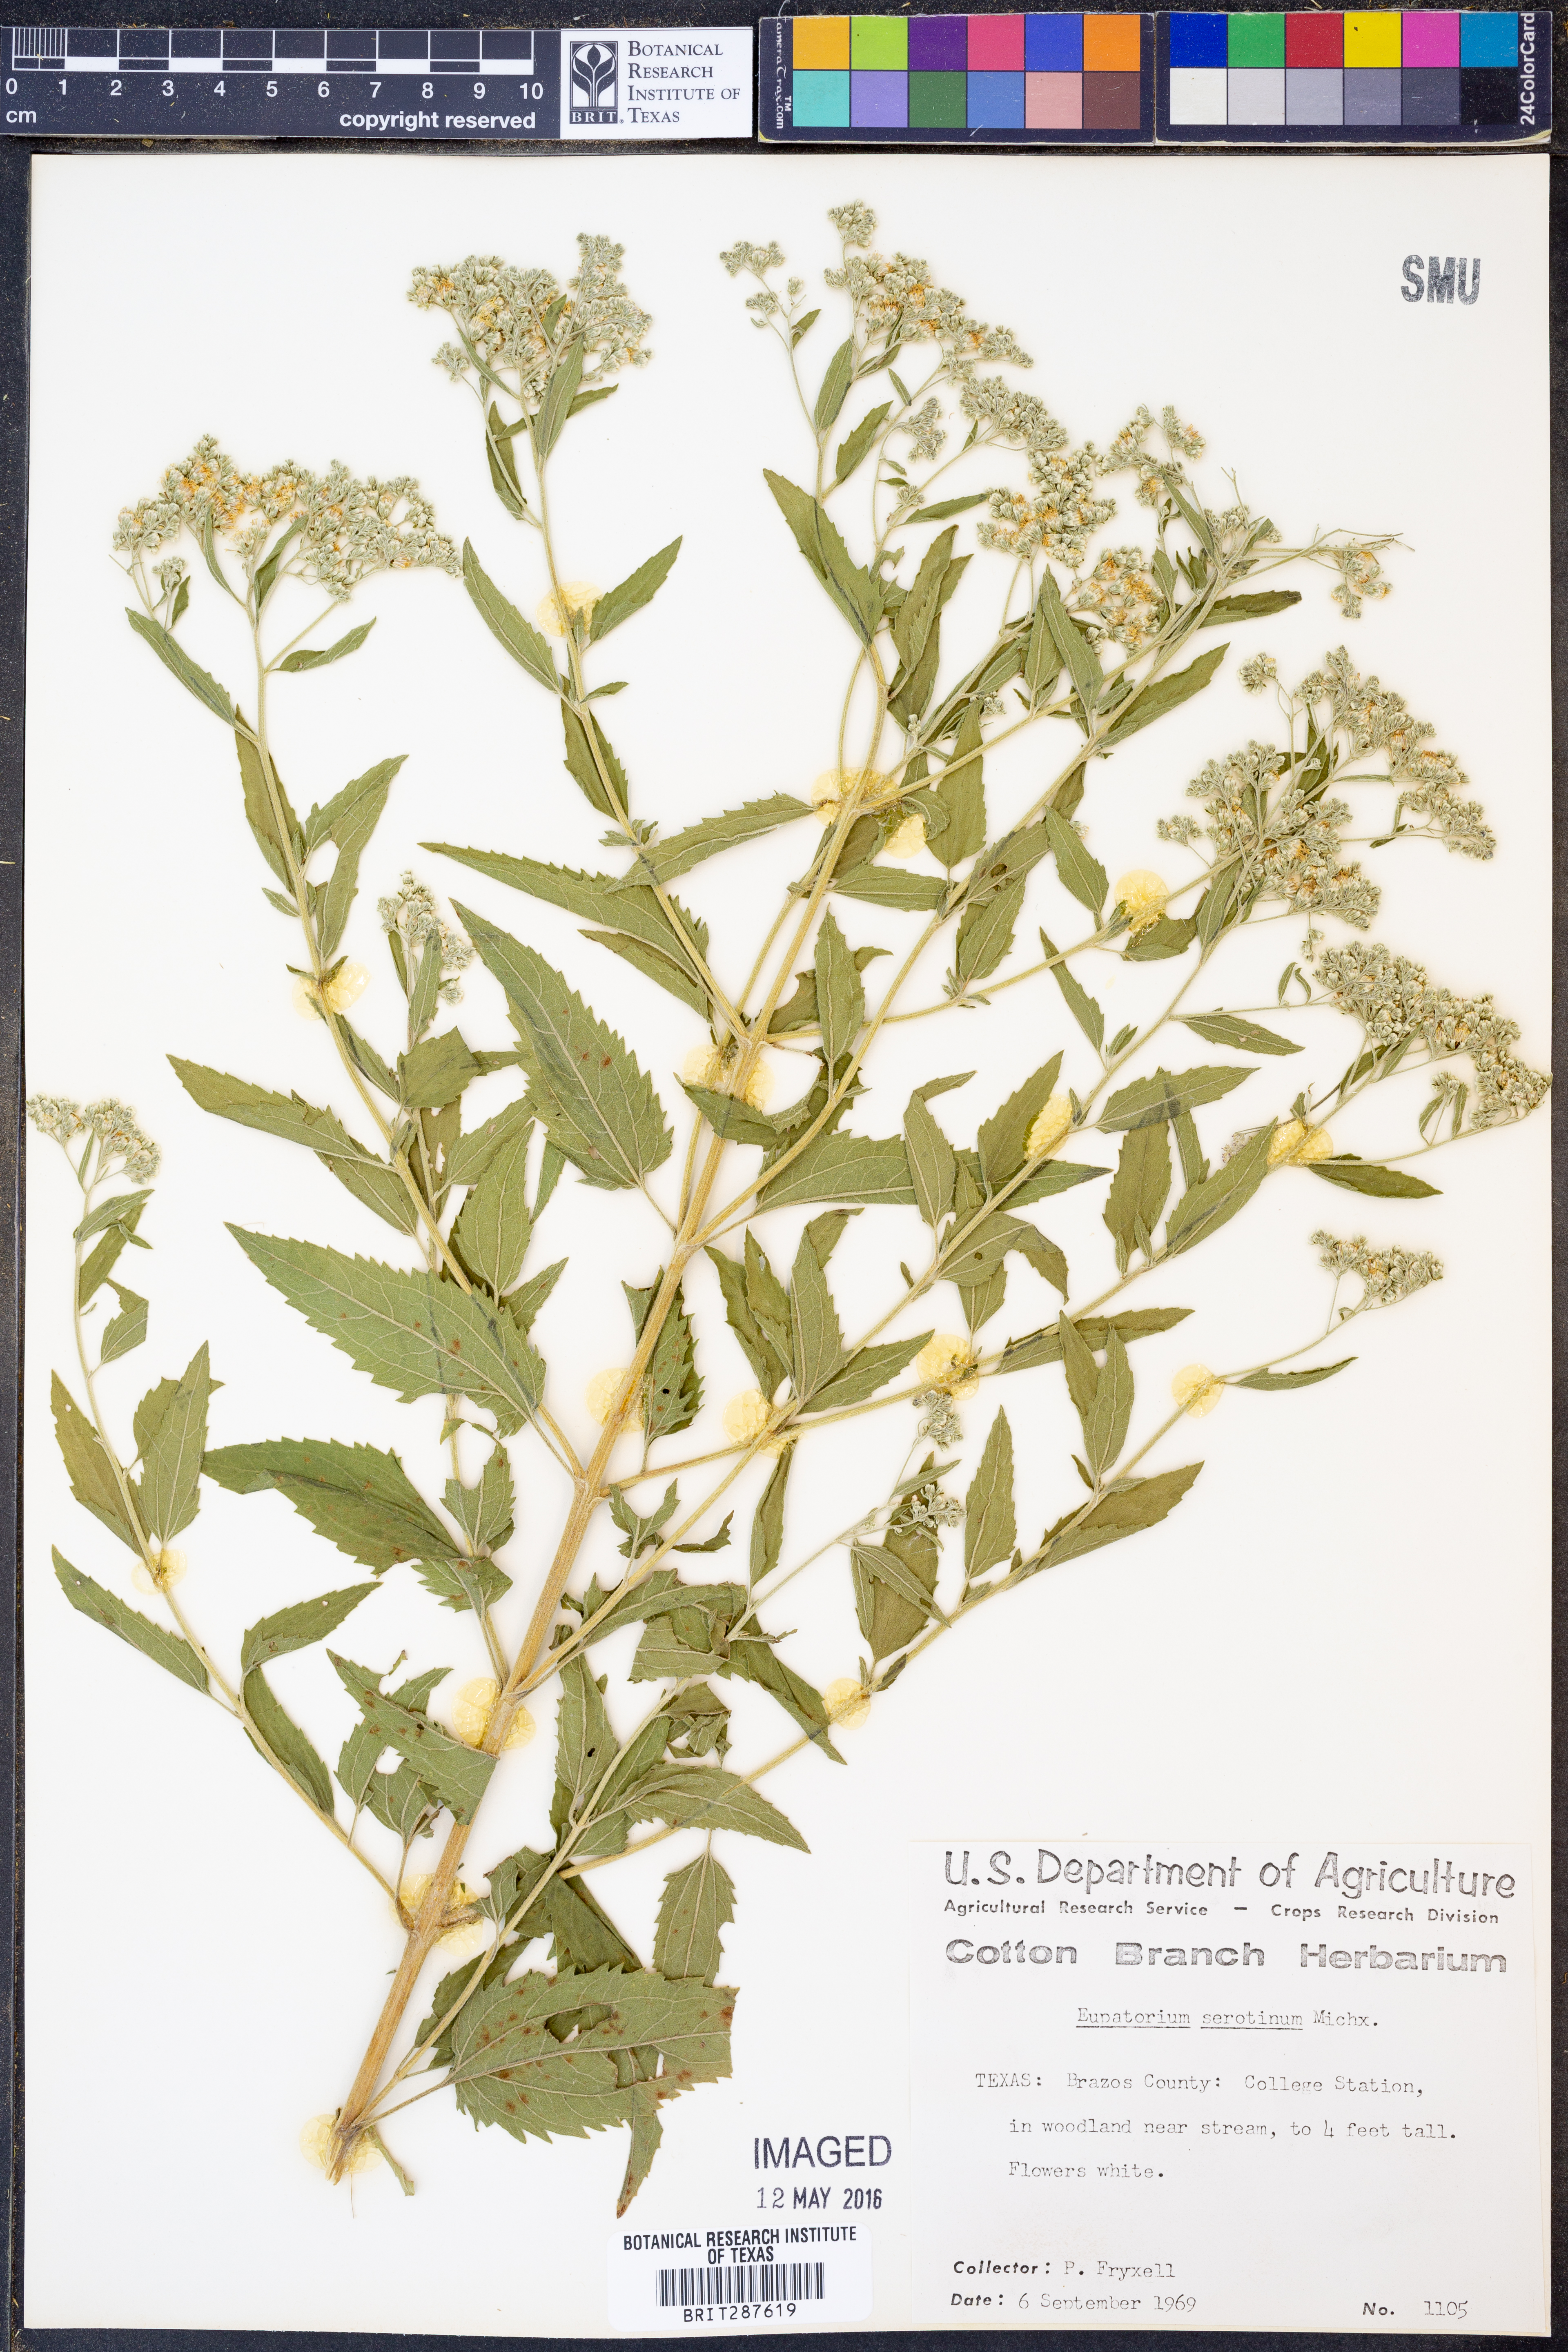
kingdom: Plantae
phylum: Tracheophyta
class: Magnoliopsida
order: Asterales
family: Asteraceae
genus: Eupatorium
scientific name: Eupatorium serotinum
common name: Late boneset
